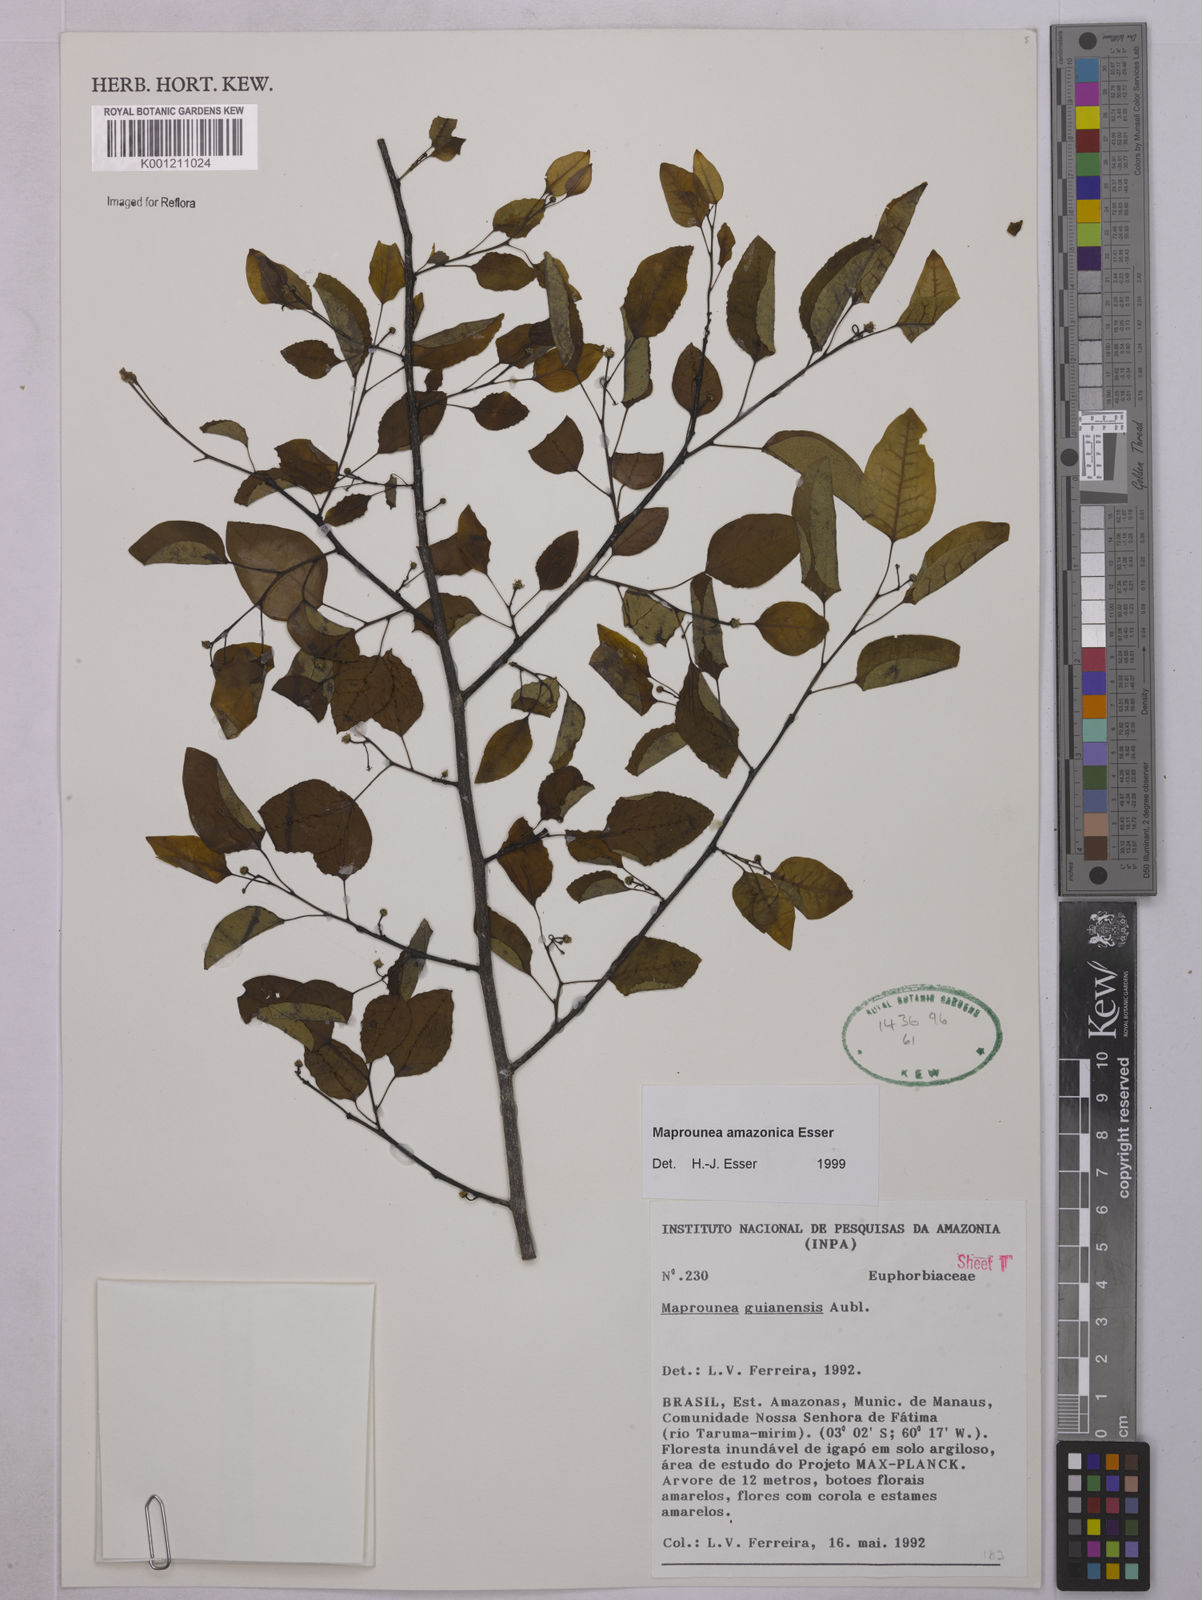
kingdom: Plantae
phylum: Tracheophyta
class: Magnoliopsida
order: Malpighiales
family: Euphorbiaceae
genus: Maprounea
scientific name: Maprounea amazonica
